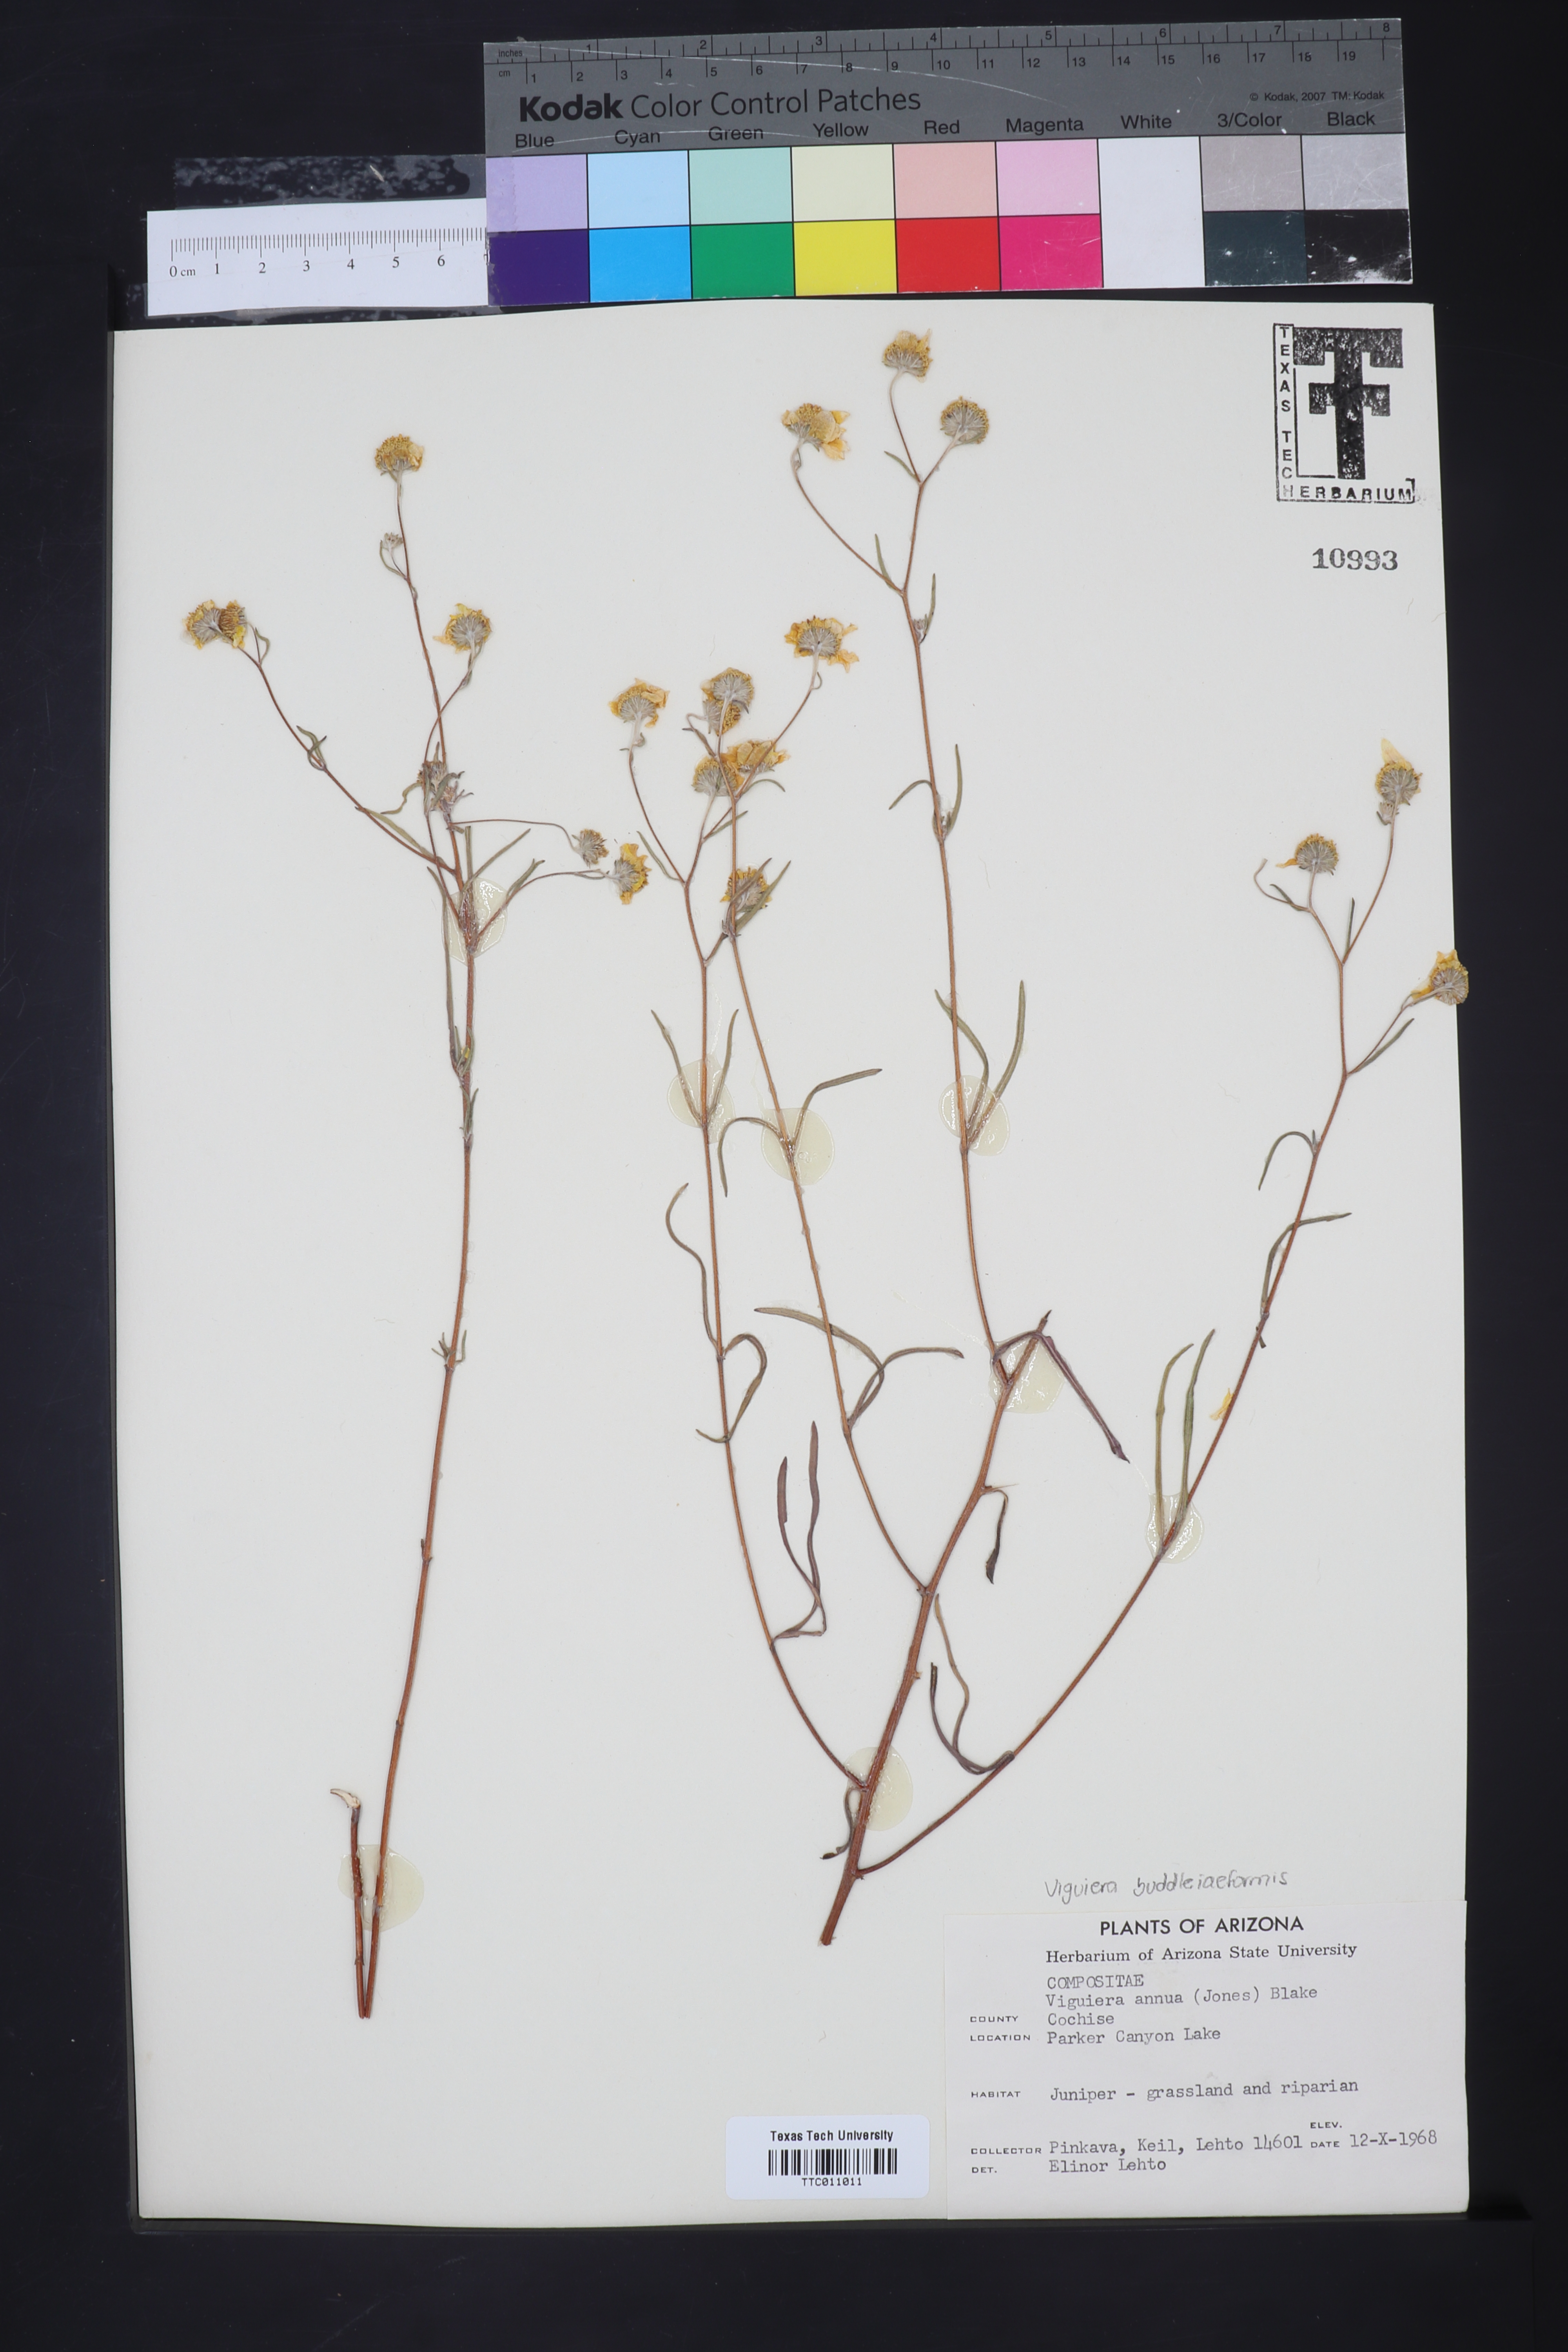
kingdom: Plantae
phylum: Tracheophyta
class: Magnoliopsida
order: Asterales
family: Asteraceae
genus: Heliomeris
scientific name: Heliomeris longifolia
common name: Longleaf false goldeneye
